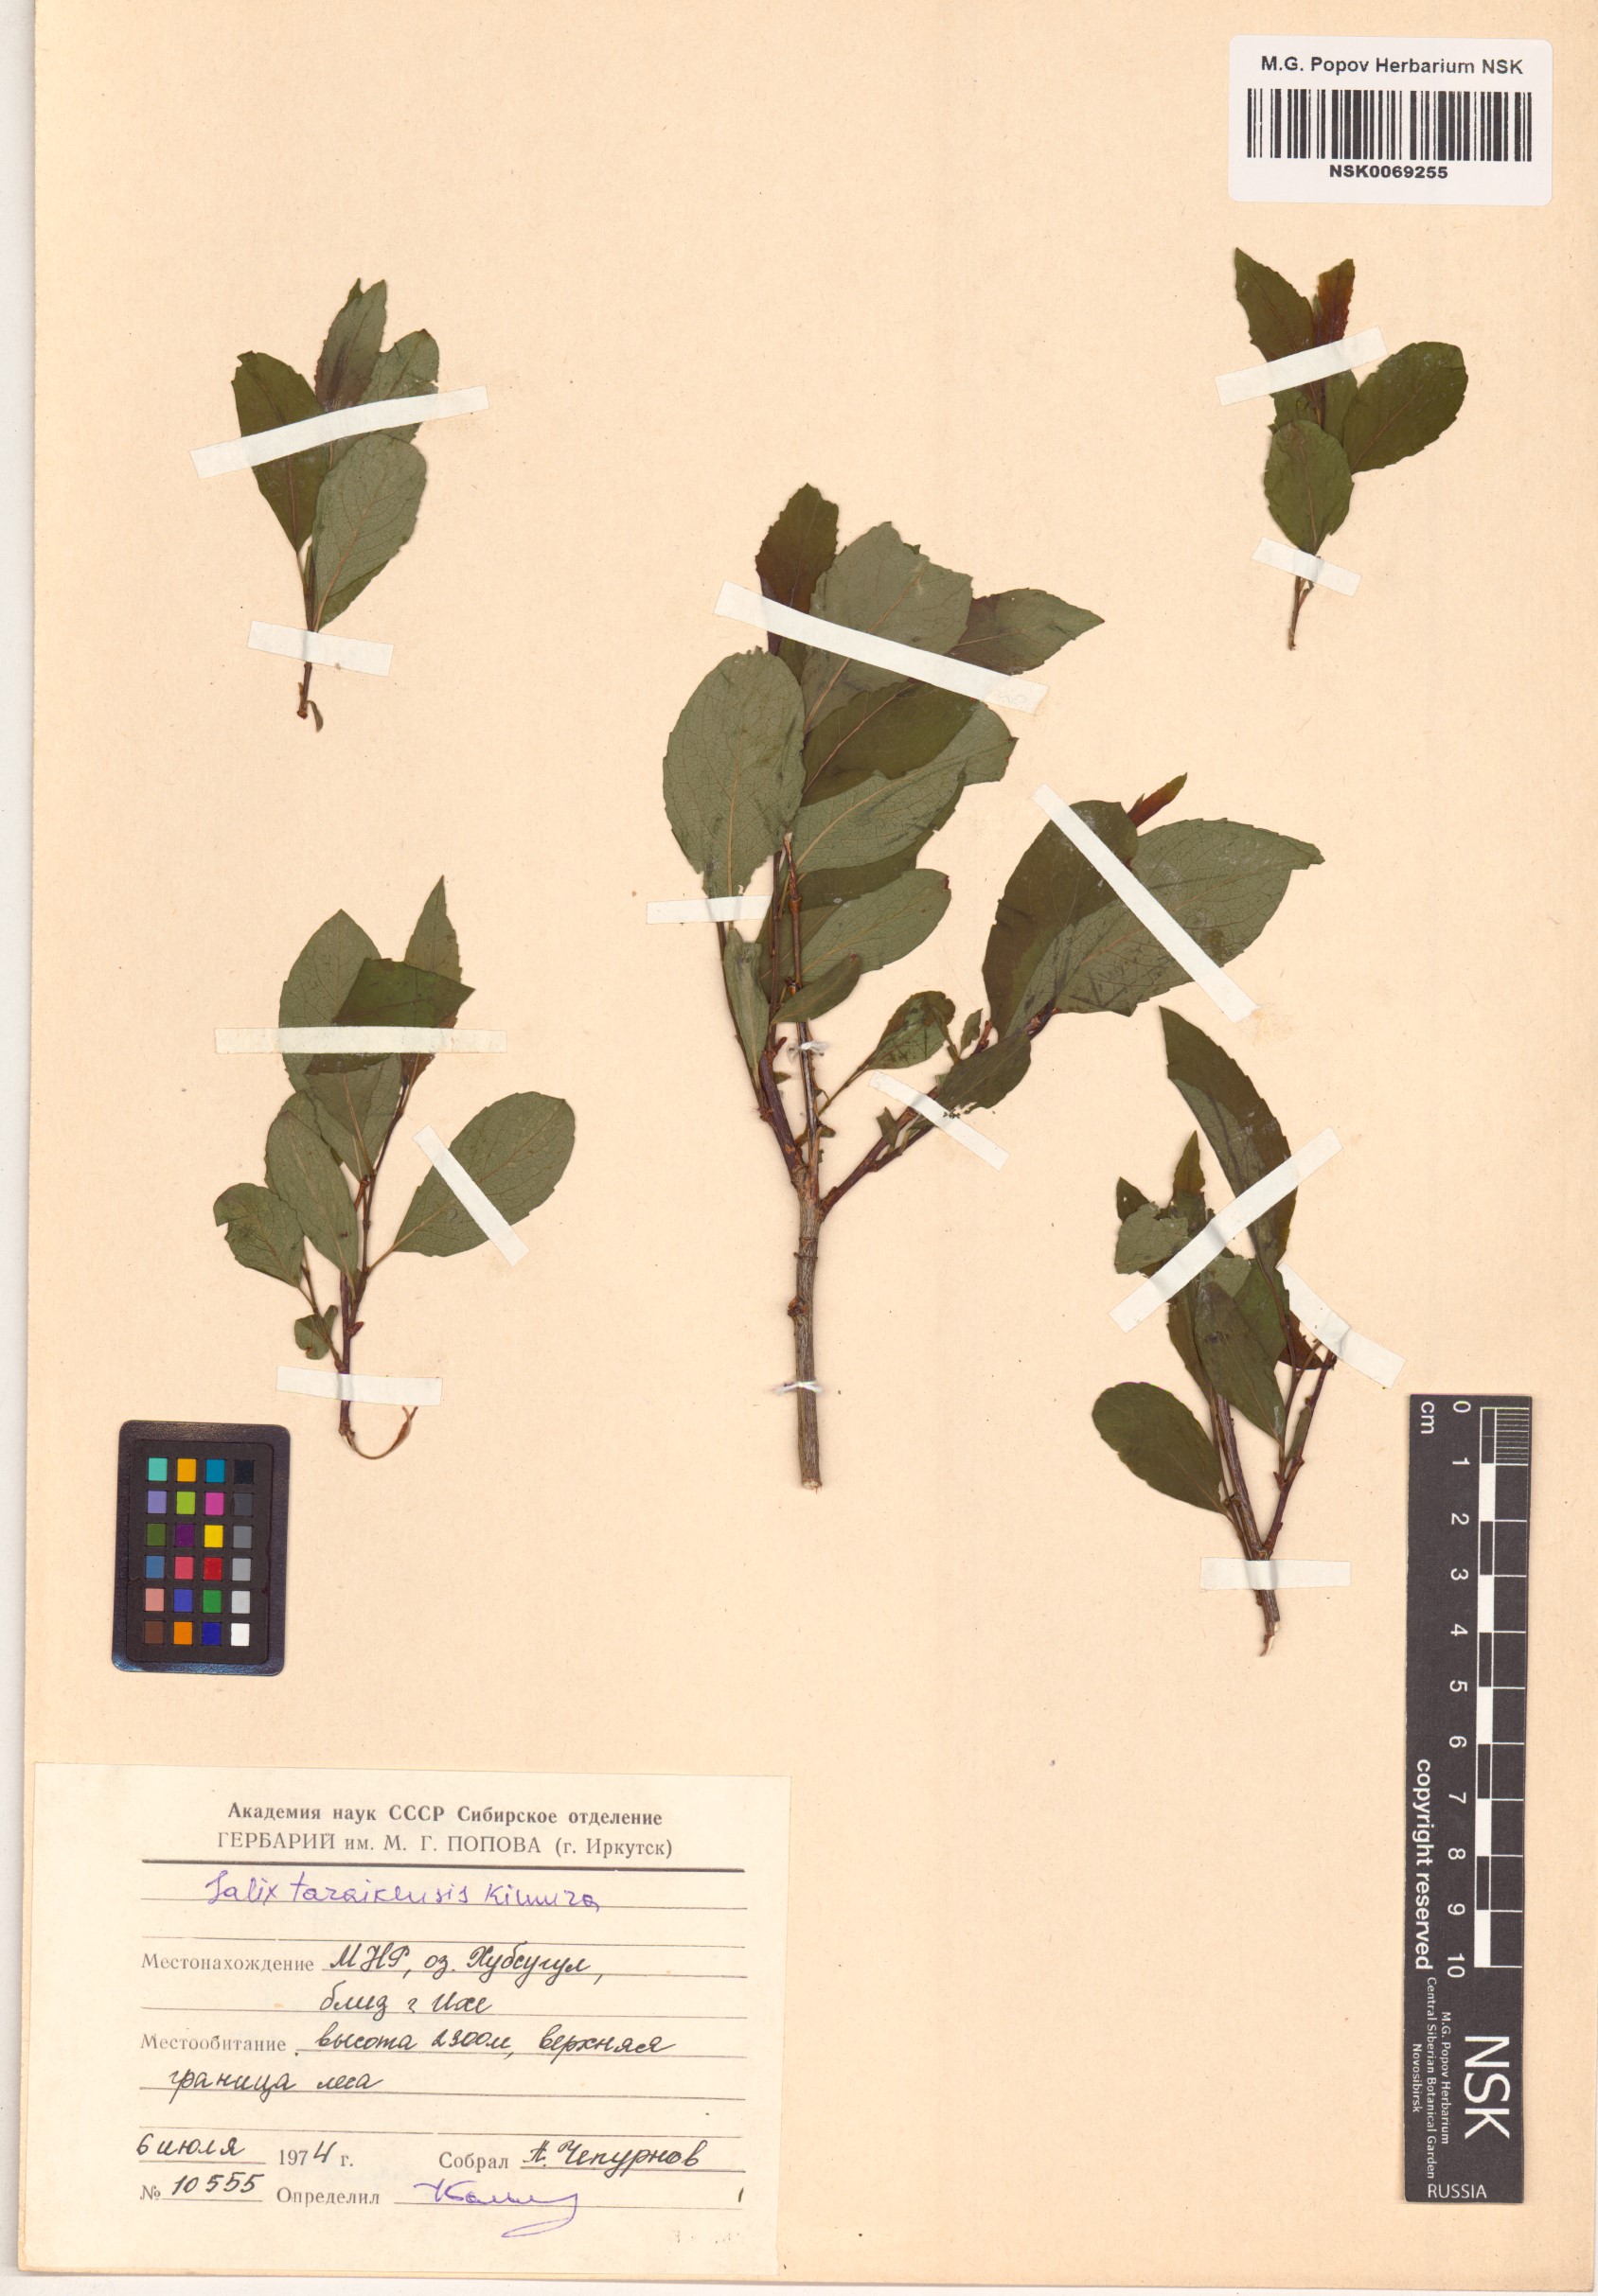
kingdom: Plantae
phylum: Tracheophyta
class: Magnoliopsida
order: Malpighiales
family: Salicaceae
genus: Salix
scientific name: Salix taraikensis
